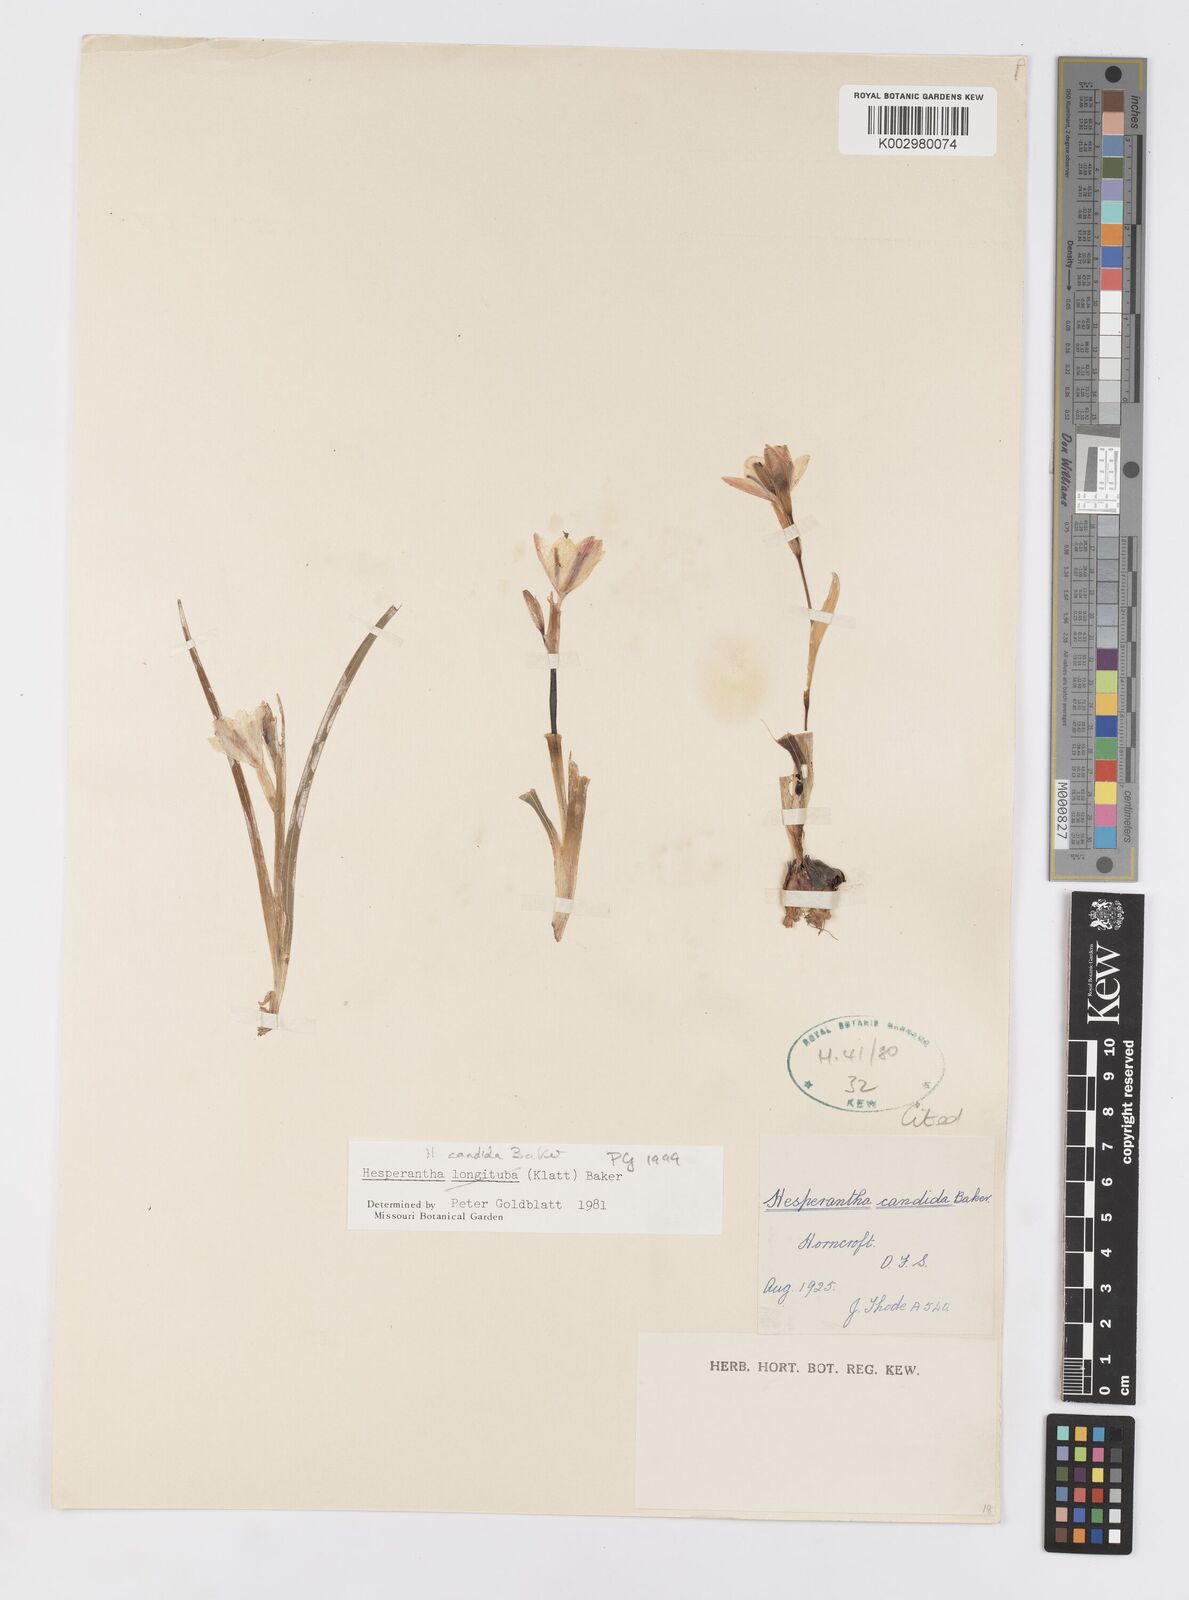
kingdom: Plantae
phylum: Tracheophyta
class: Liliopsida
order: Asparagales
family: Iridaceae
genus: Hesperantha
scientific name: Hesperantha candida
